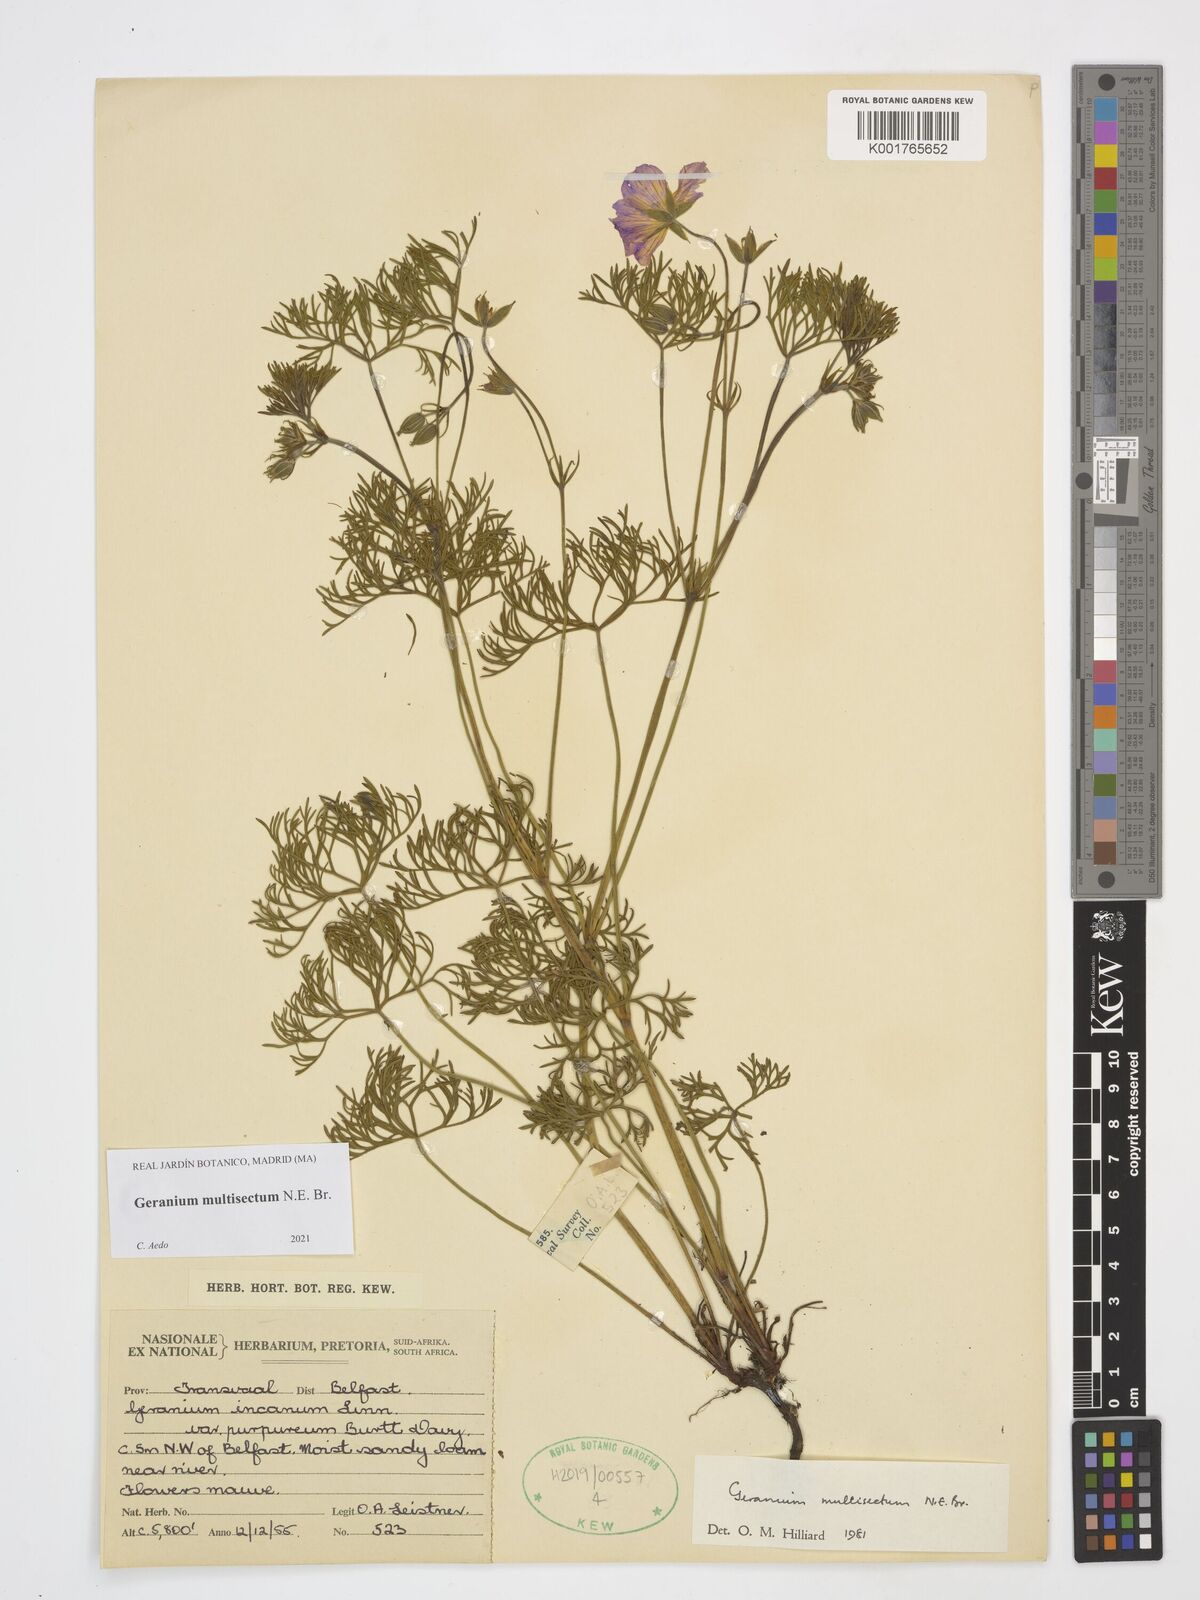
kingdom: Plantae
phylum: Tracheophyta
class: Magnoliopsida
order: Geraniales
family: Geraniaceae
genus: Geranium
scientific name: Geranium multisectum
